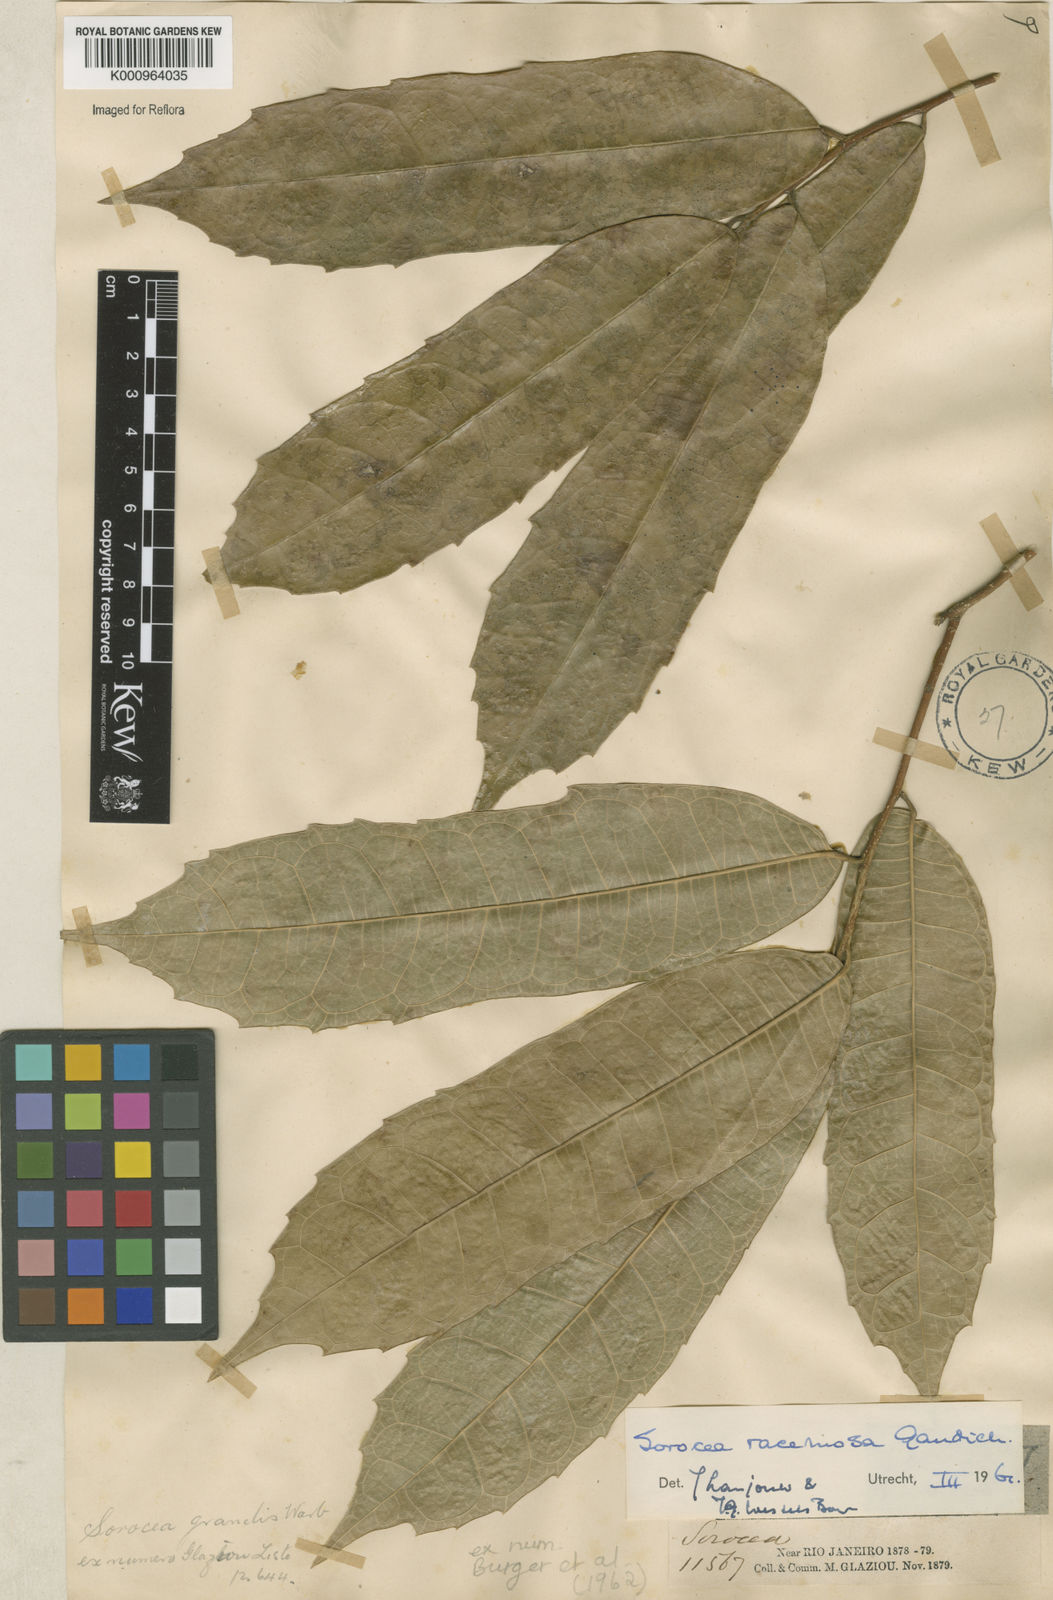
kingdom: Plantae
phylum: Tracheophyta
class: Magnoliopsida
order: Rosales
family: Moraceae
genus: Sorocea
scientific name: Sorocea hilarii
